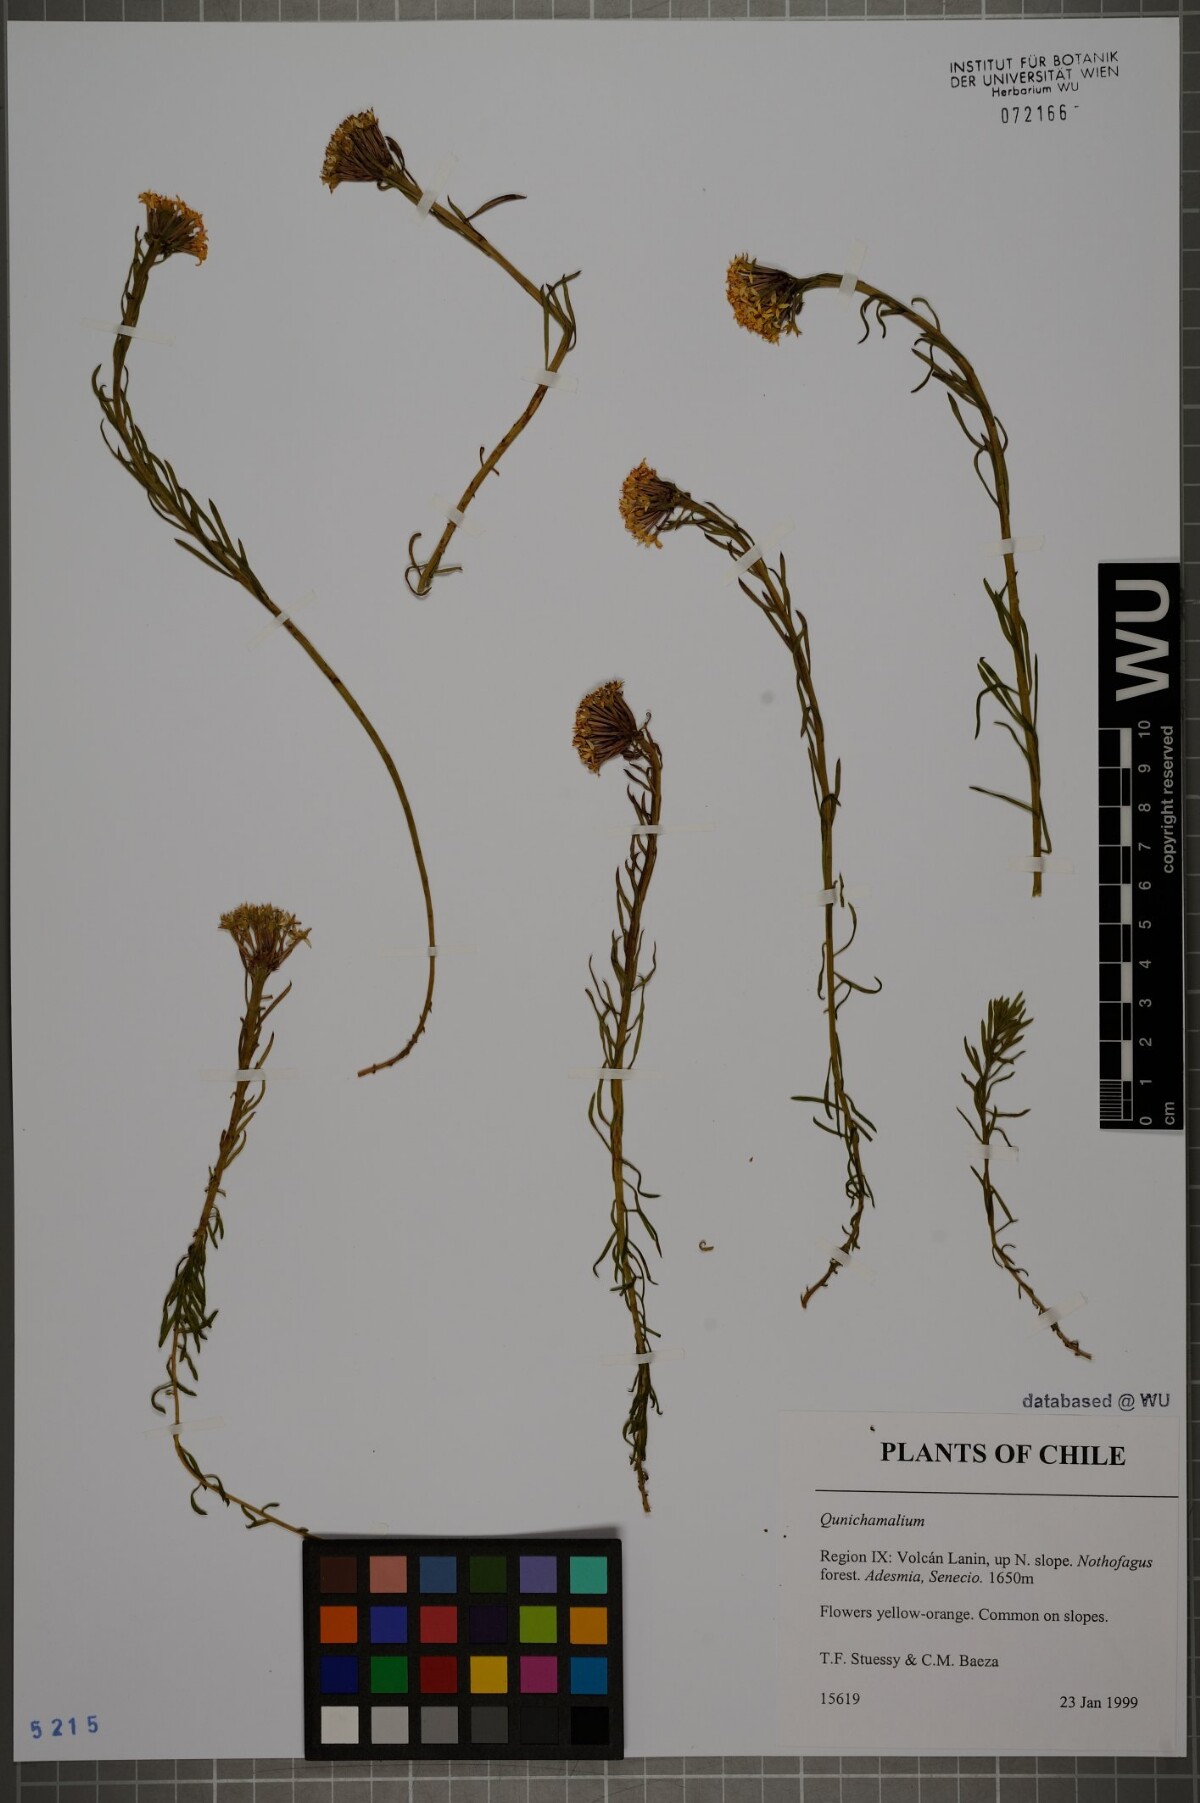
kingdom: Plantae
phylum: Tracheophyta
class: Magnoliopsida
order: Santalales
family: Schoepfiaceae
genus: Quinchamalium
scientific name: Quinchamalium
